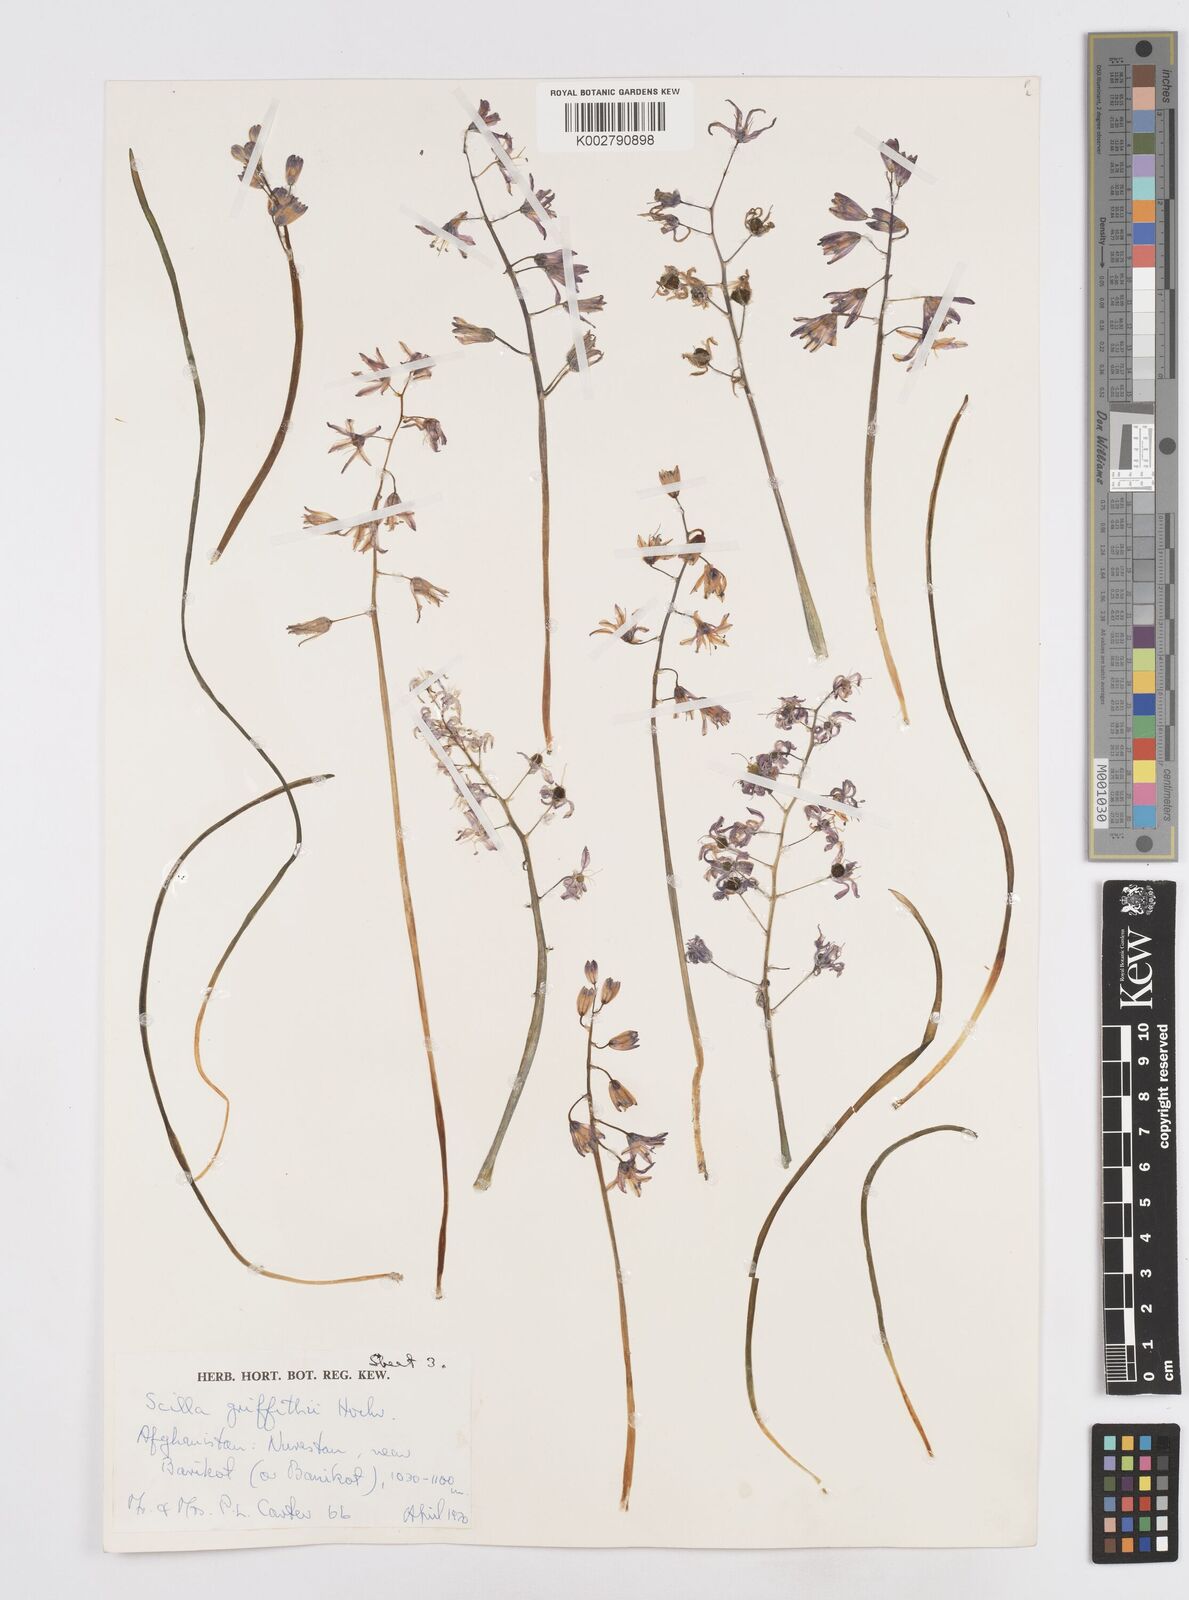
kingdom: Plantae
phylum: Tracheophyta
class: Liliopsida
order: Asparagales
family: Asparagaceae
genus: Fessia
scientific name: Fessia purpurea
